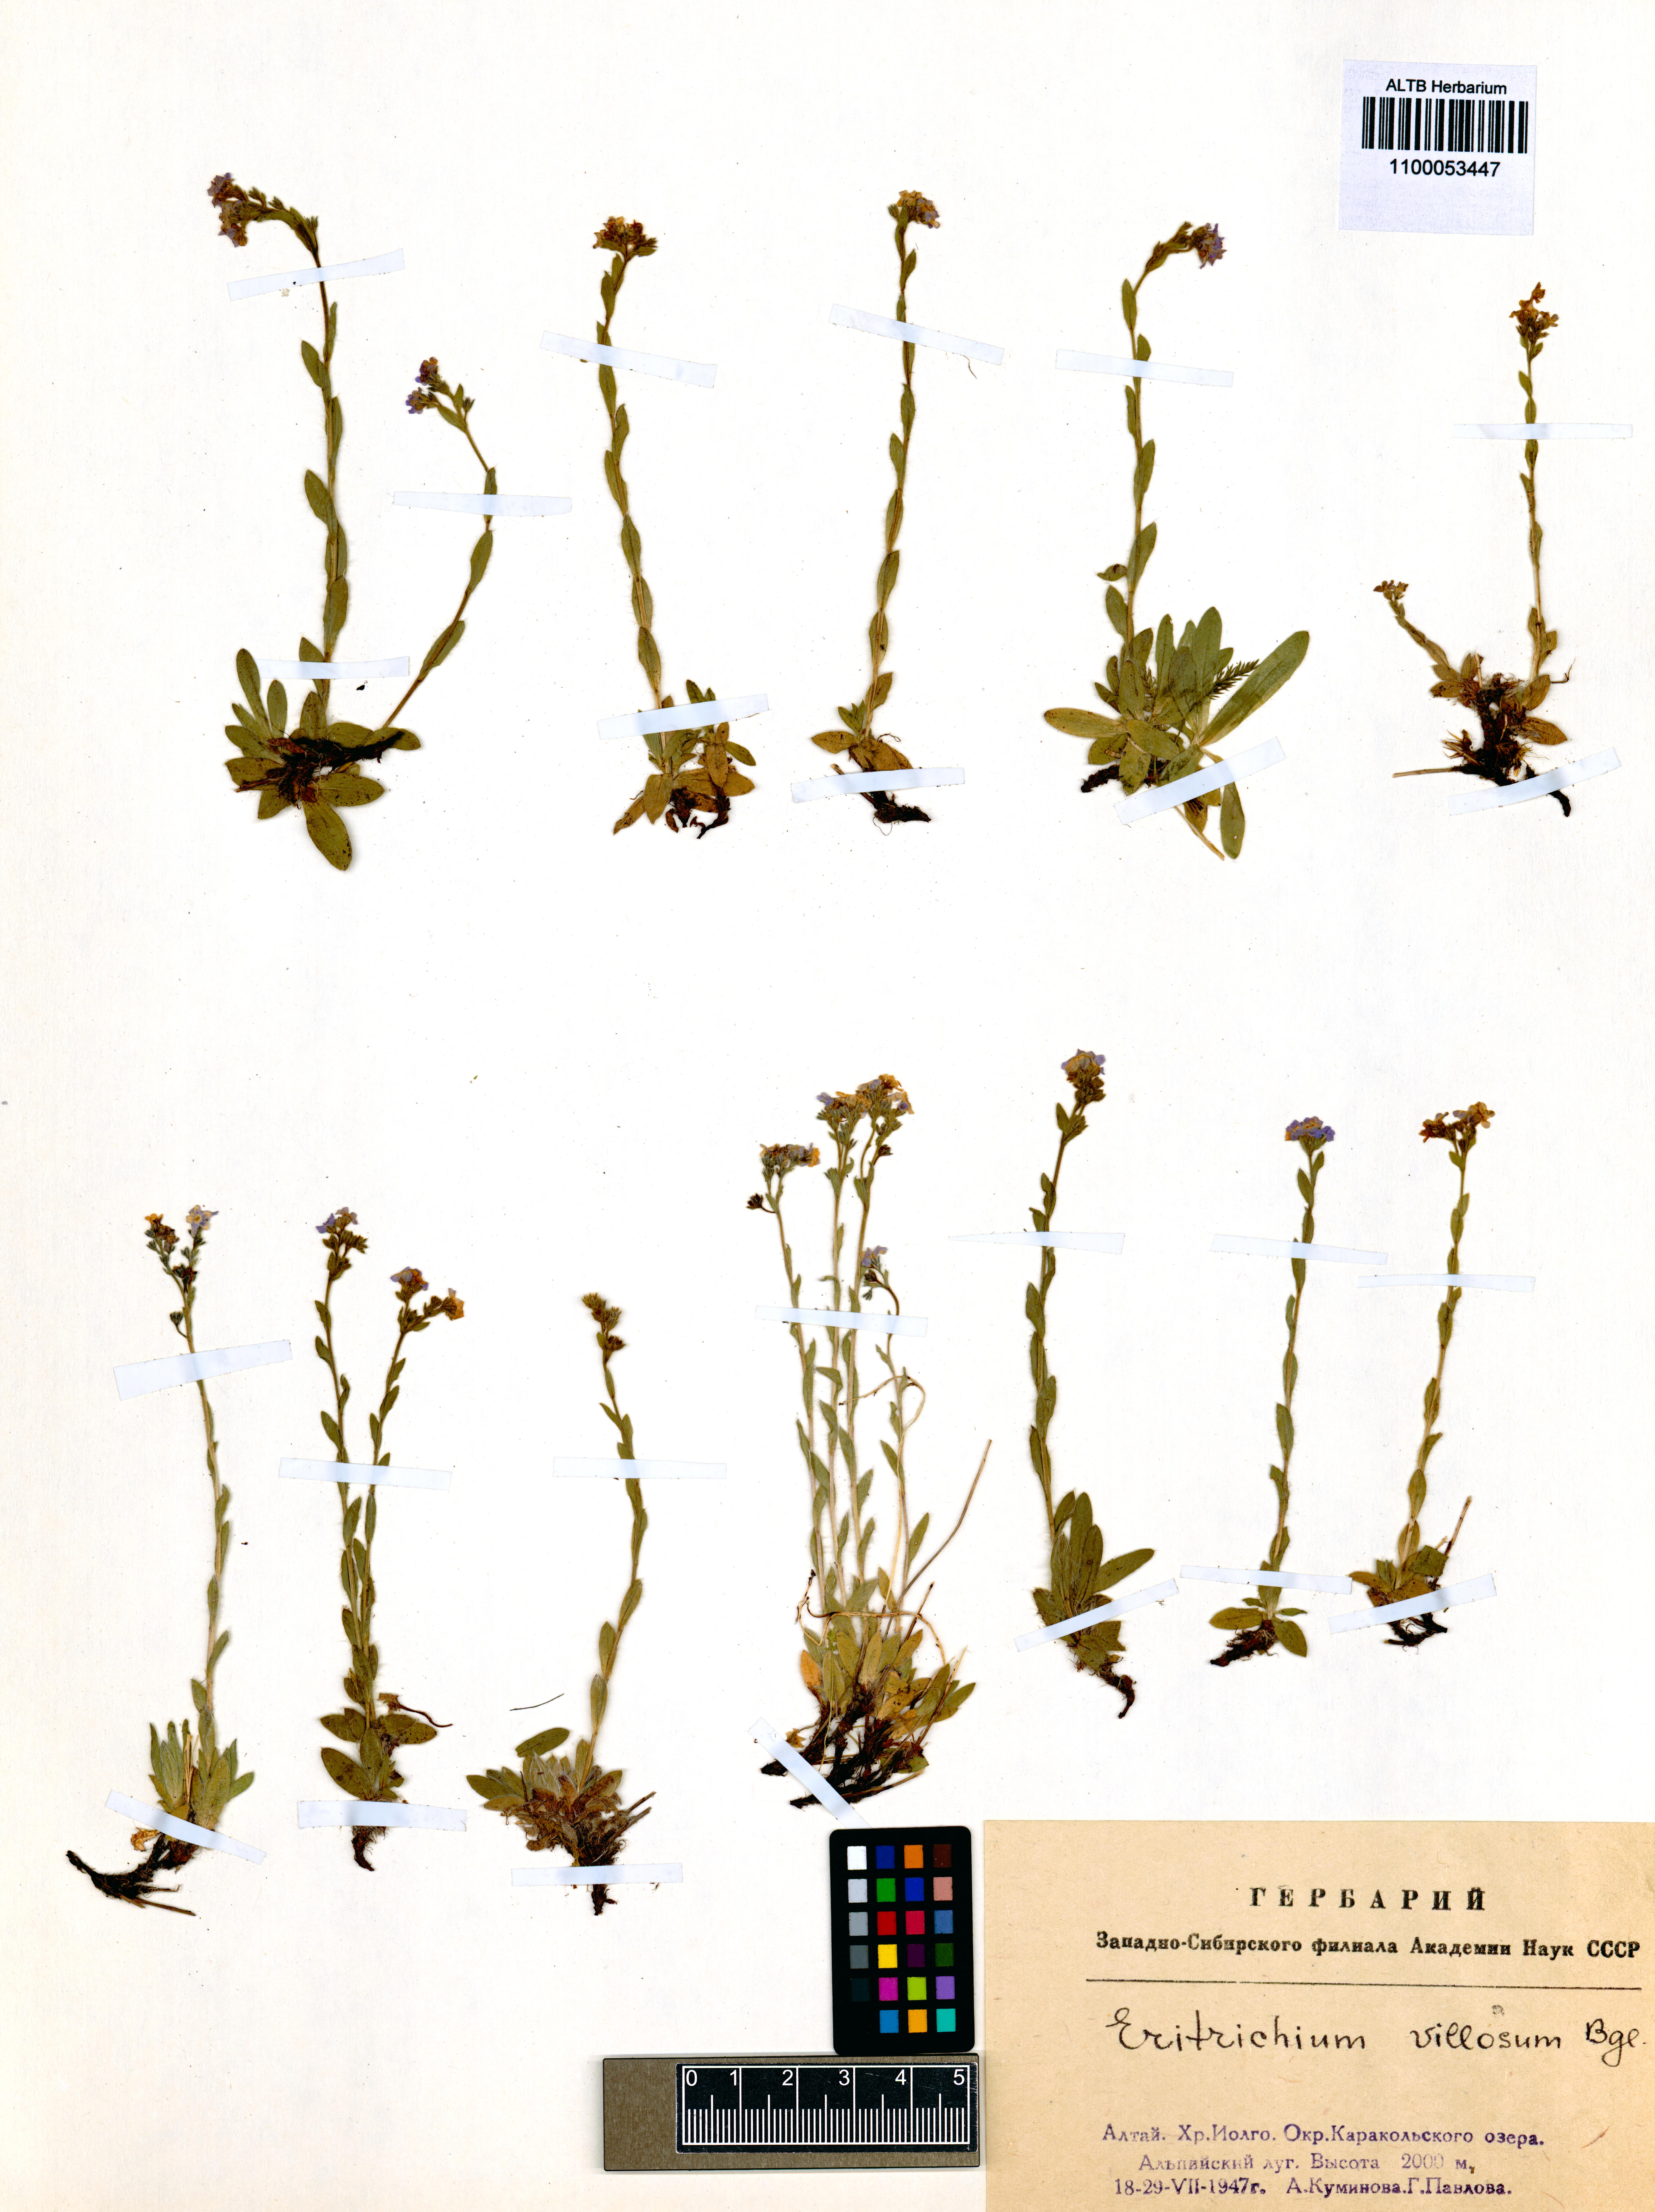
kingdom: Plantae
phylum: Tracheophyta
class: Magnoliopsida
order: Boraginales
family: Boraginaceae
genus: Eritrichium
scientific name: Eritrichium villosum
